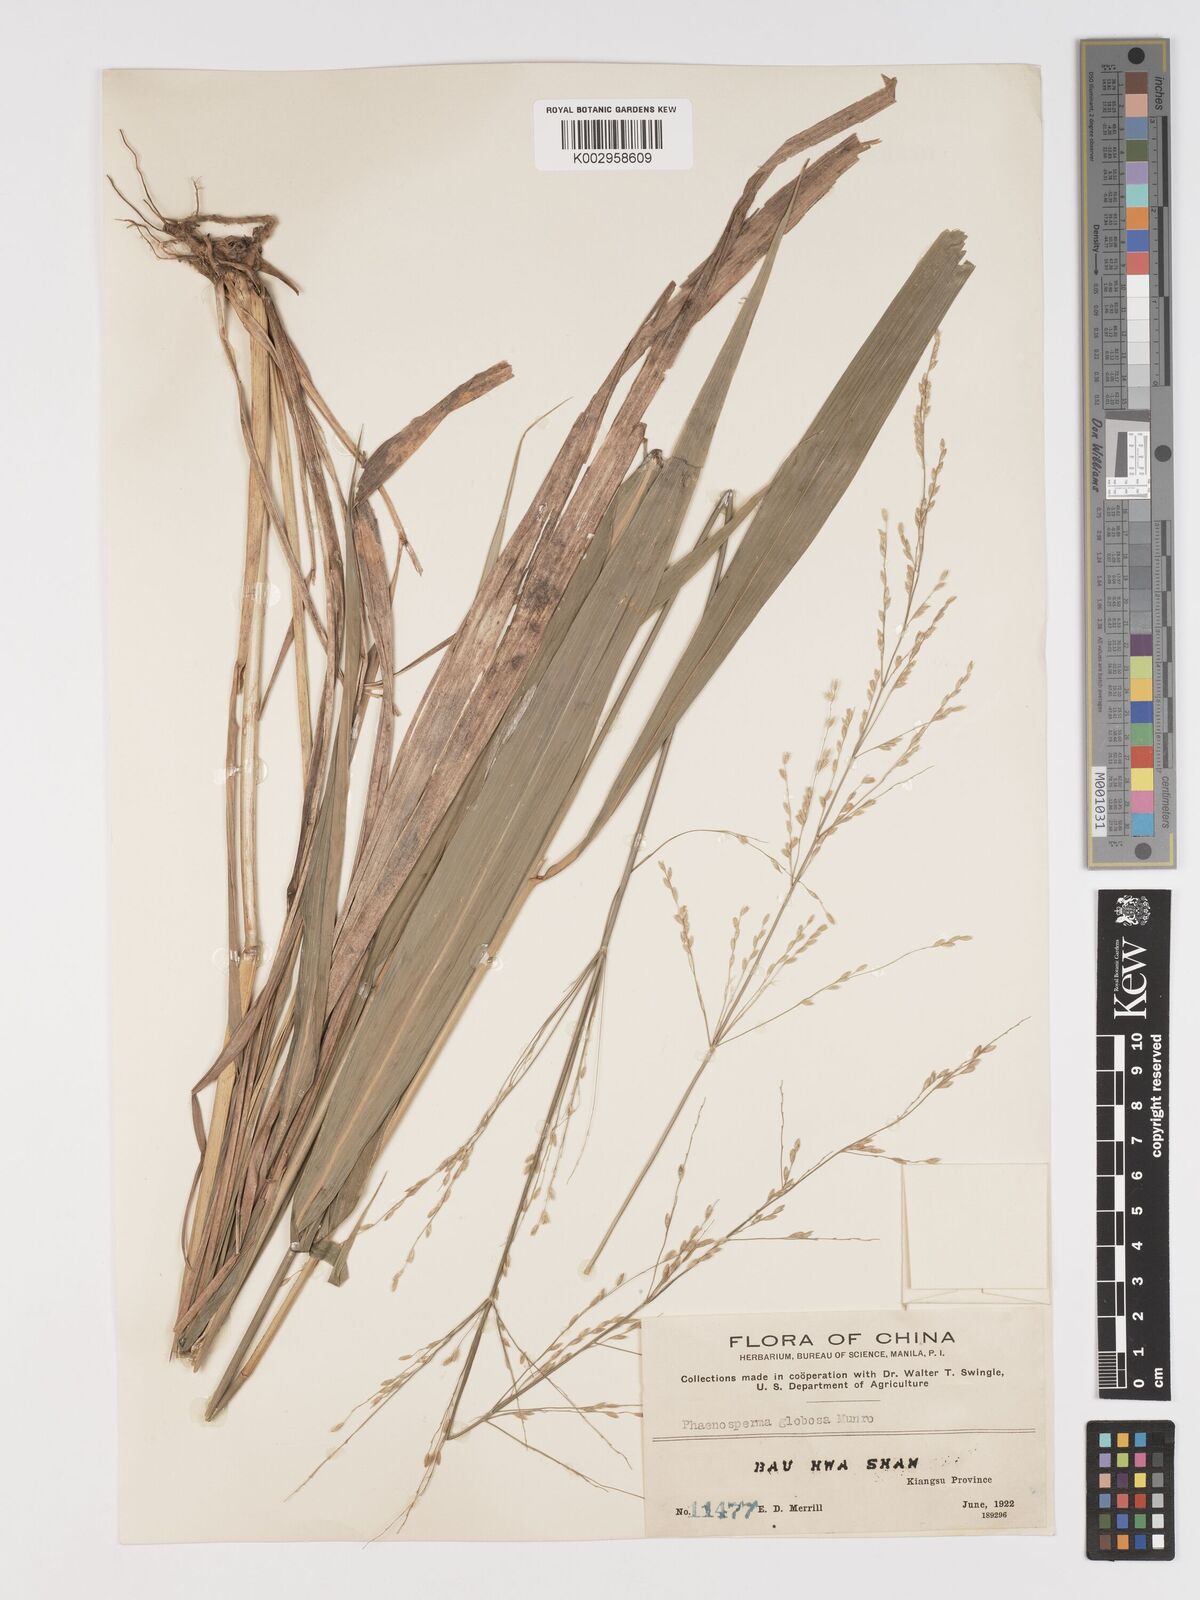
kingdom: Plantae
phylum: Tracheophyta
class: Liliopsida
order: Poales
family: Poaceae
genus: Phaenosperma
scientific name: Phaenosperma globosum
